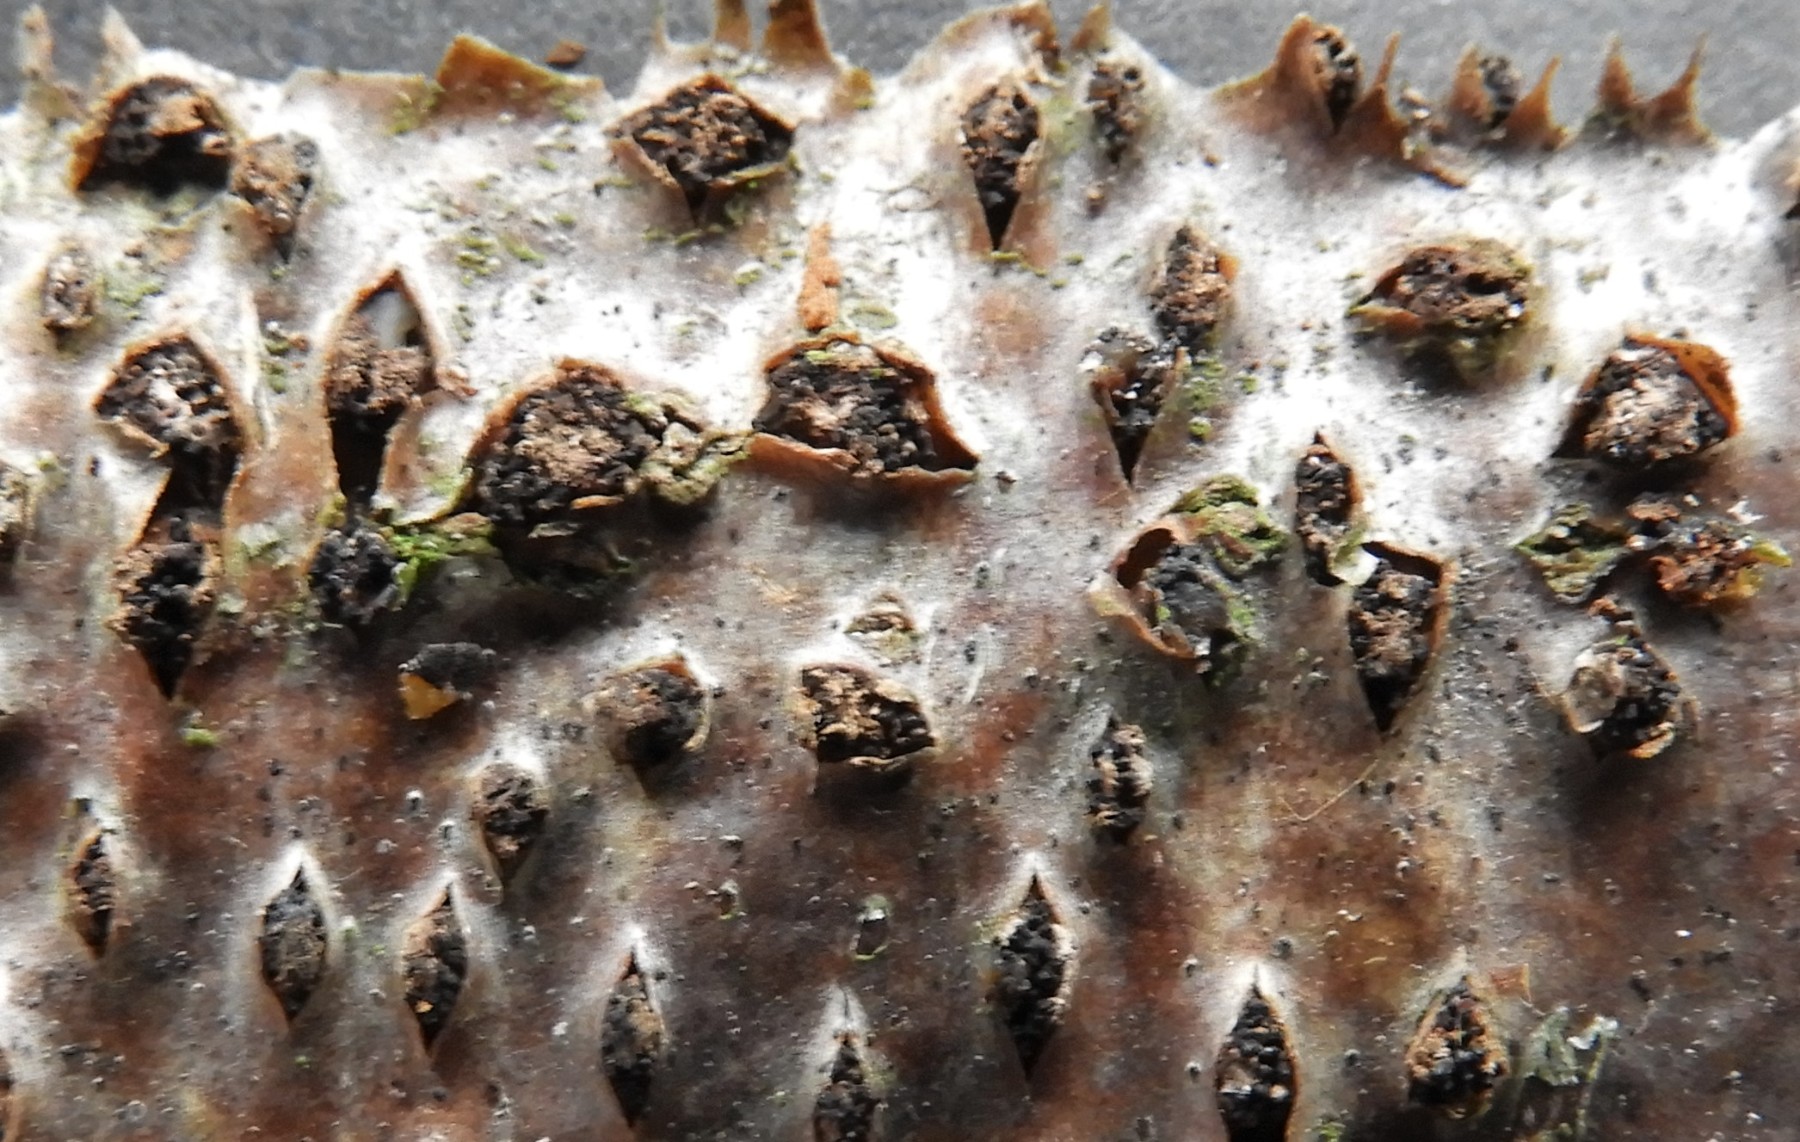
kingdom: Fungi
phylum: Ascomycota
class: Sordariomycetes
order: Diaporthales
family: Erythrogloeaceae
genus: Dendrostoma
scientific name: Dendrostoma leiphaemia
